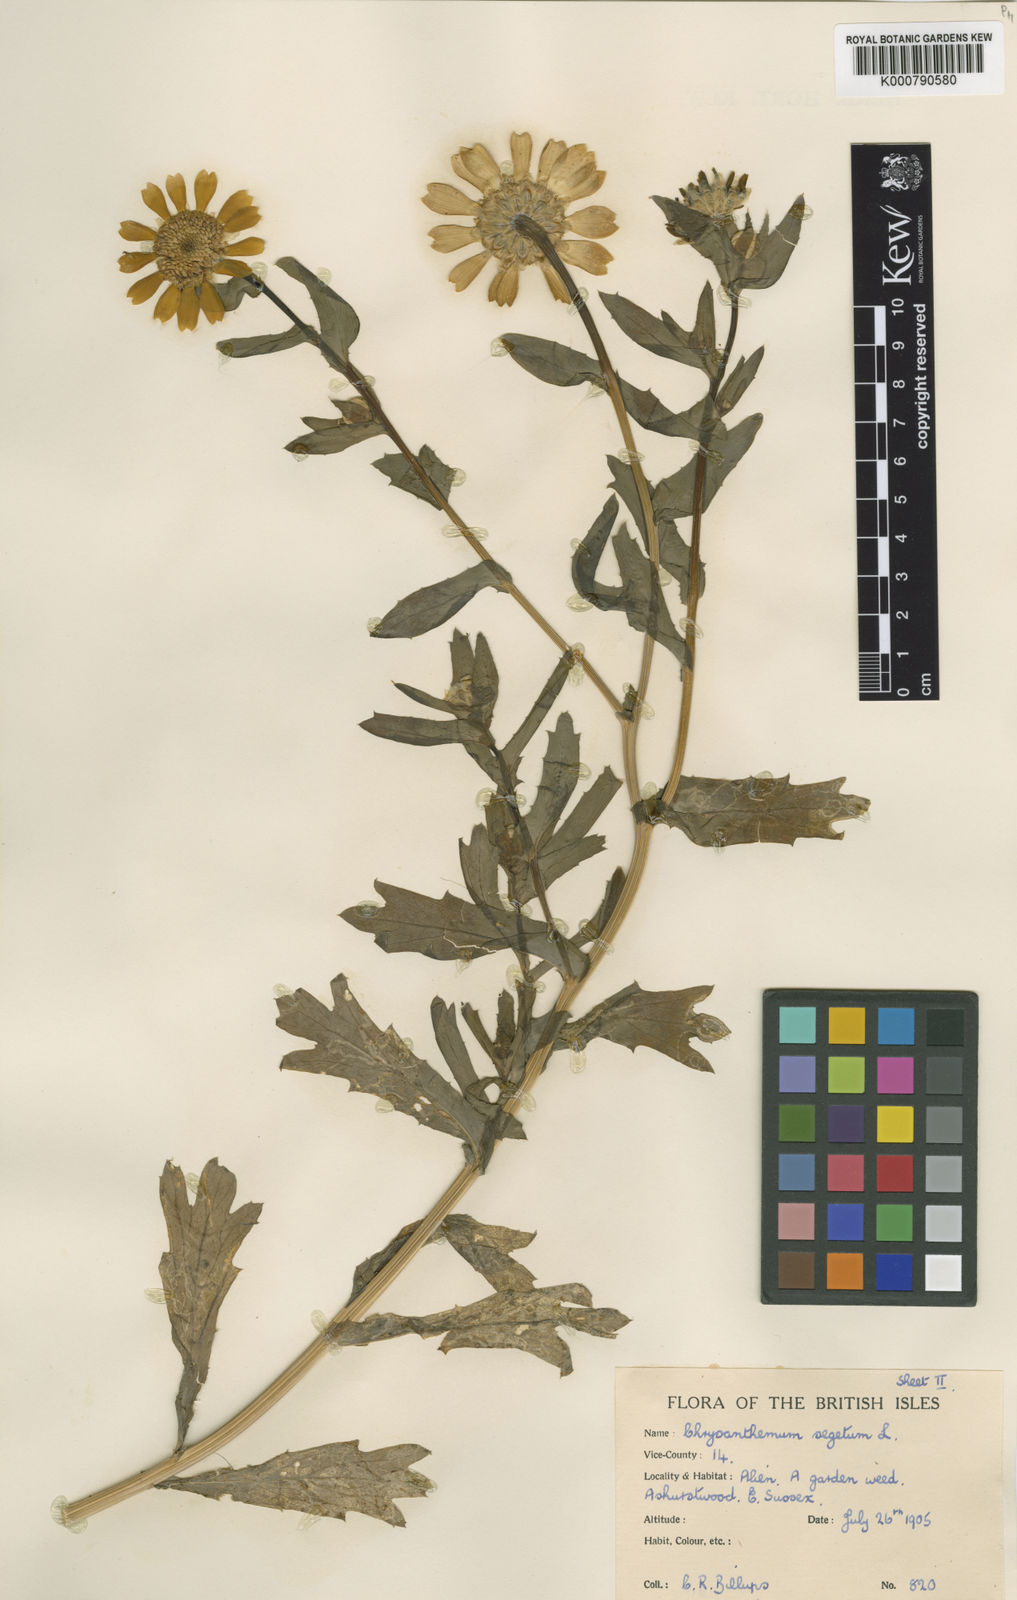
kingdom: Plantae
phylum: Tracheophyta
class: Magnoliopsida
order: Asterales
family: Asteraceae
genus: Glebionis
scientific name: Glebionis
